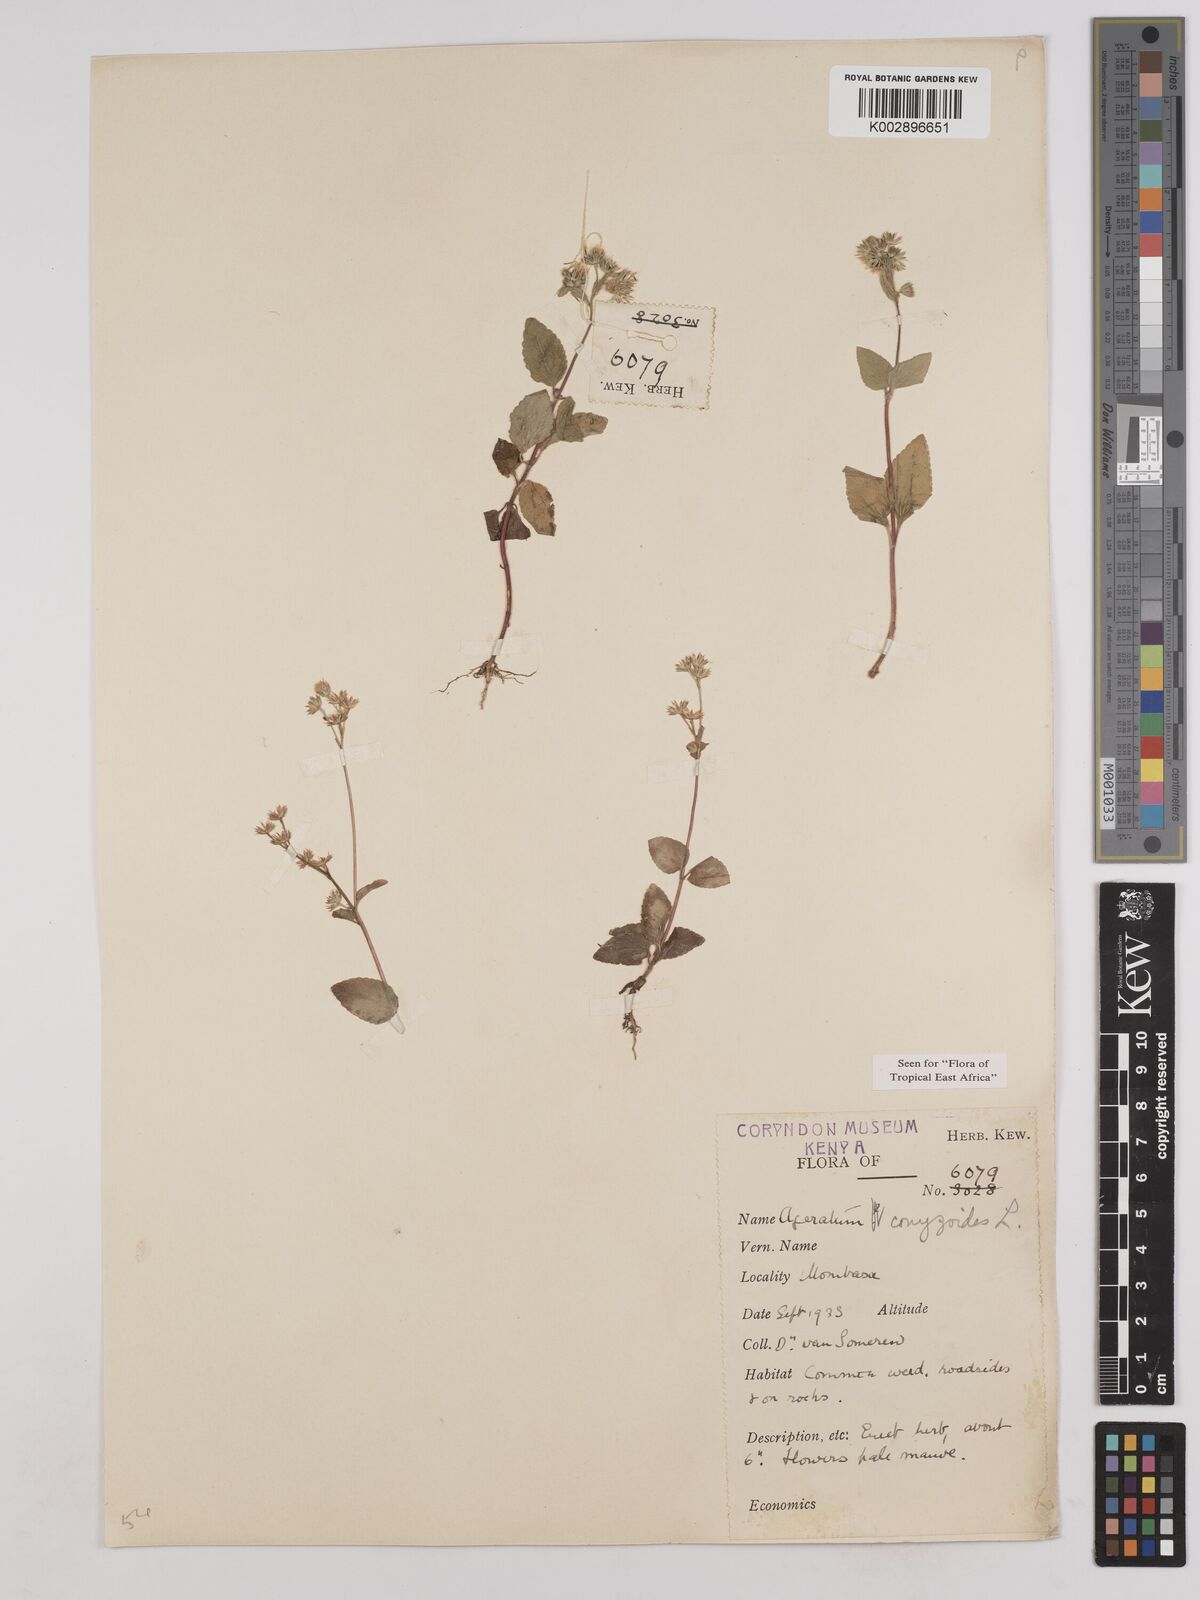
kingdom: Plantae
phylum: Tracheophyta
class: Magnoliopsida
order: Asterales
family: Asteraceae
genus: Ageratum
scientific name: Ageratum conyzoides
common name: Tropical whiteweed
